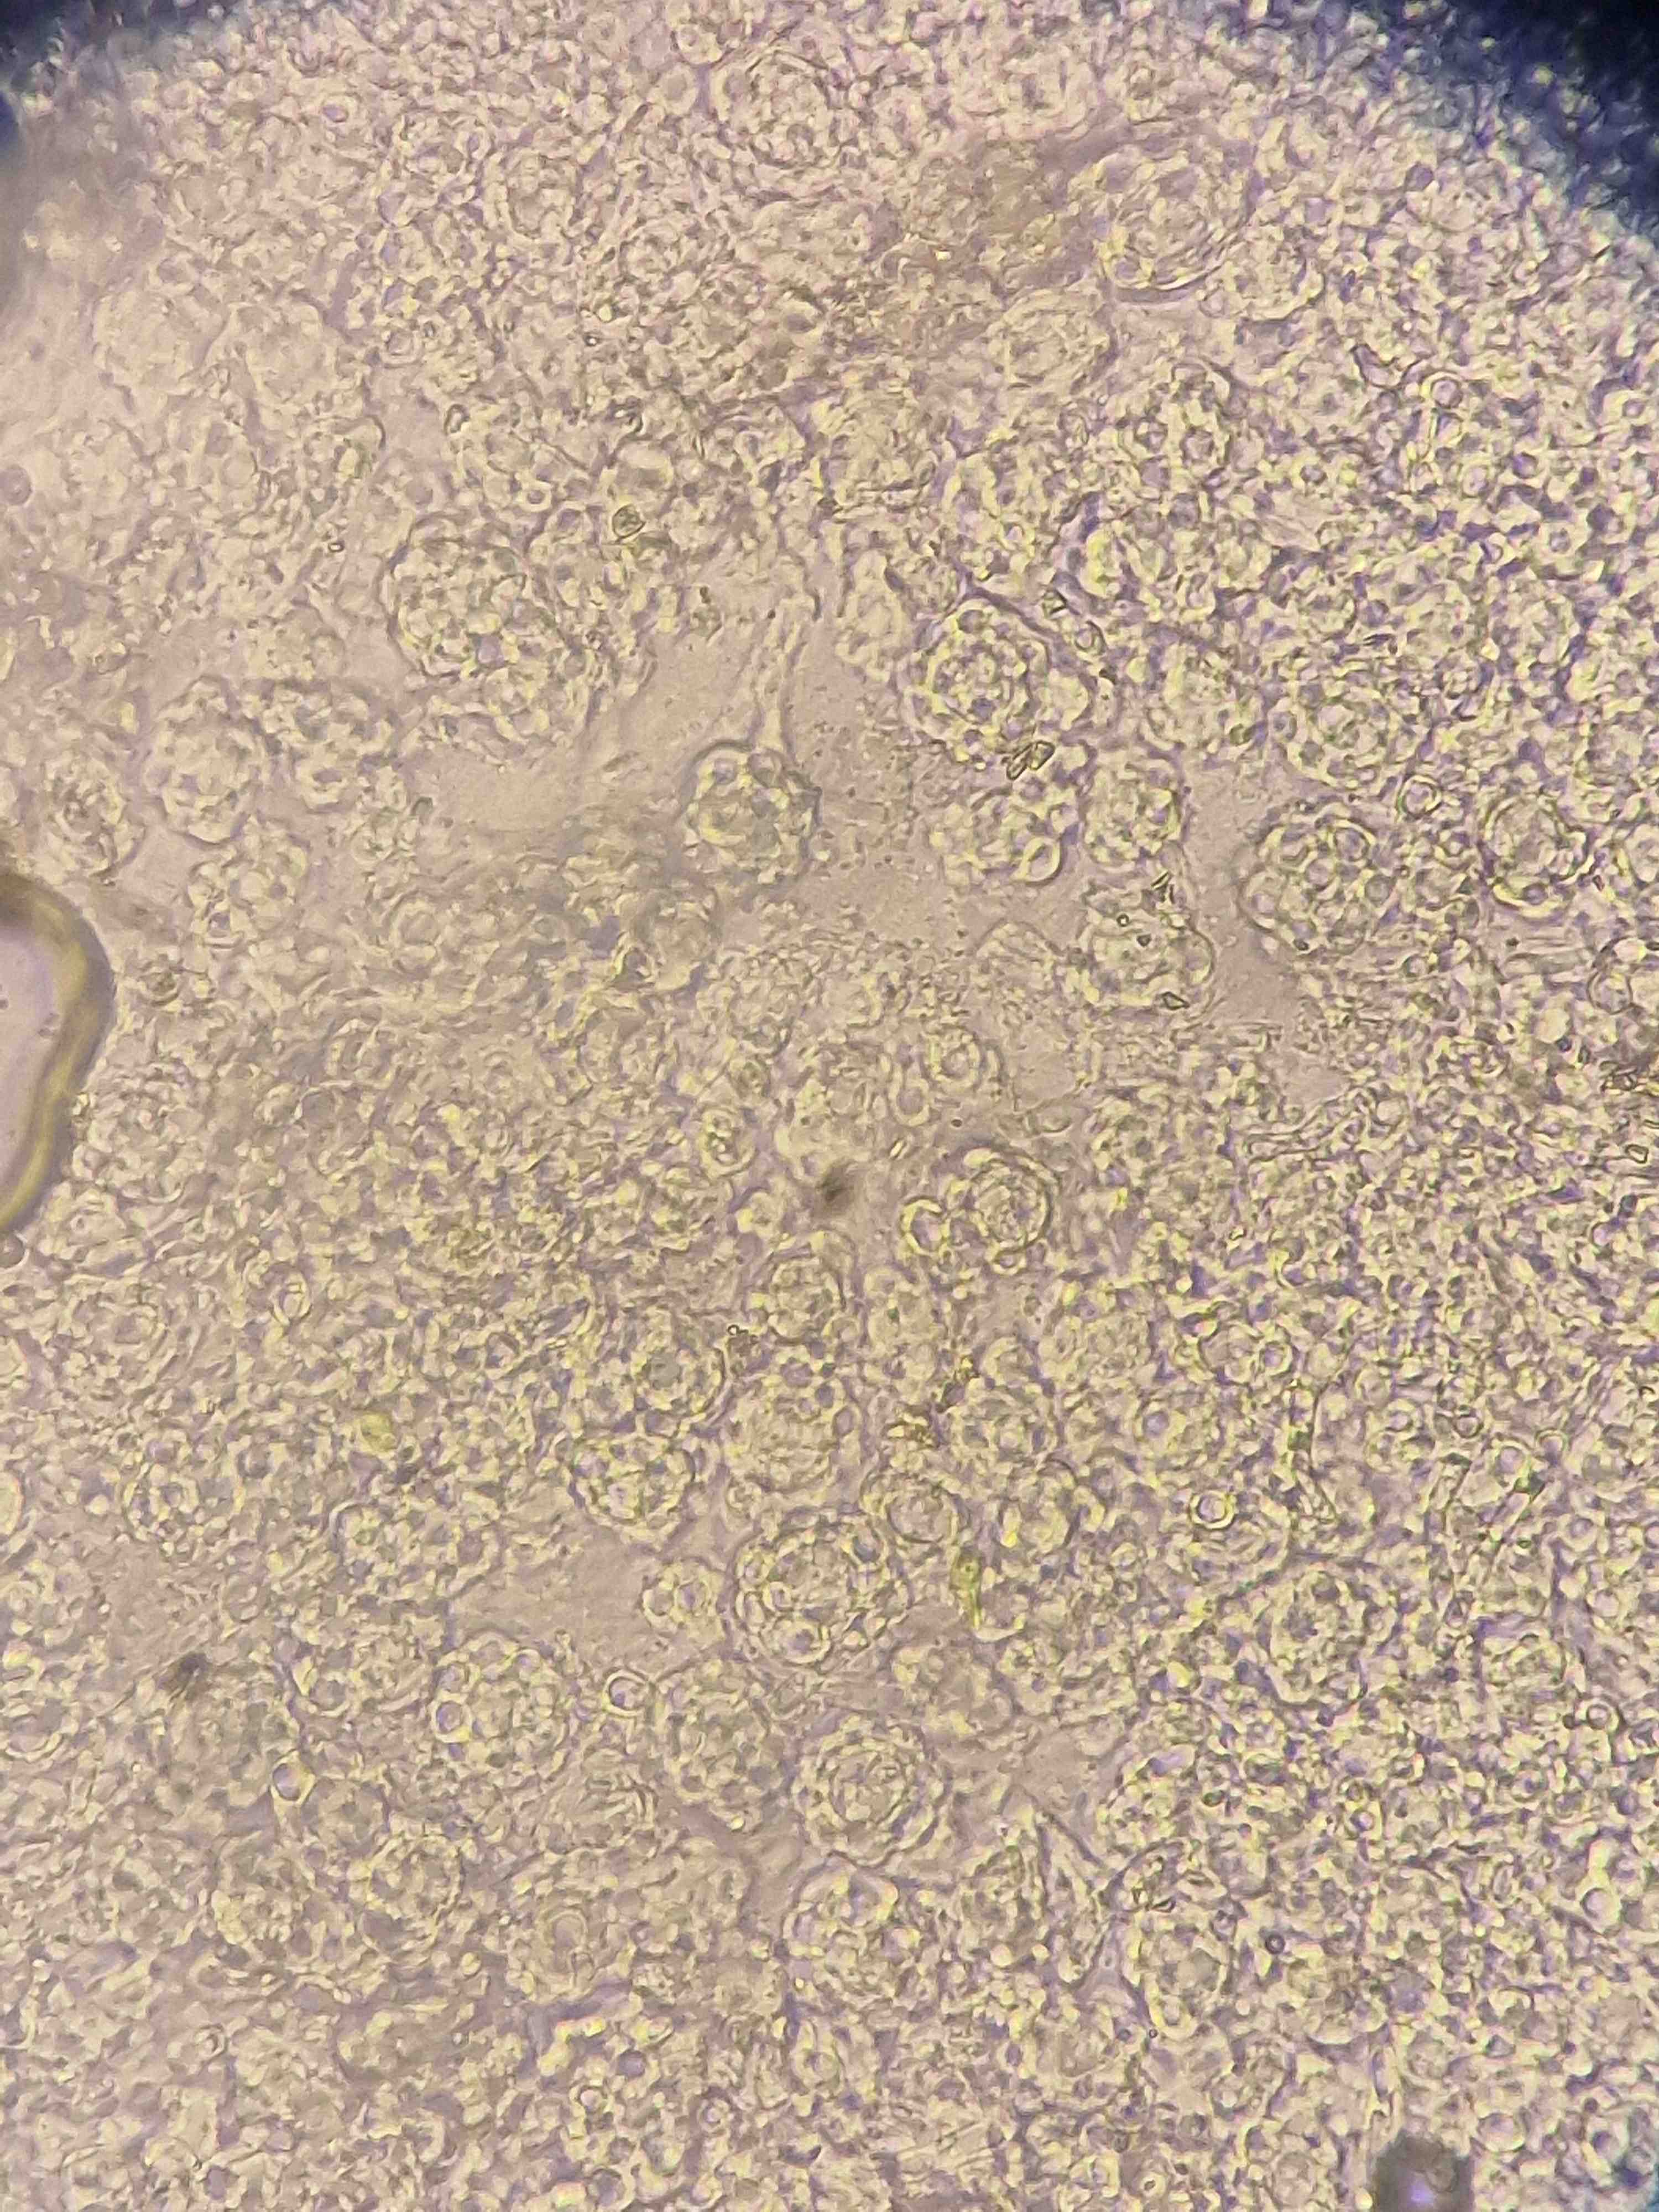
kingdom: Fungi
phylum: Ascomycota
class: Sordariomycetes
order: Hypocreales
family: Hypocreaceae
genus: Hypomyces
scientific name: Hypomyces papulasporae
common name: jordtunge-snylteskorpe
